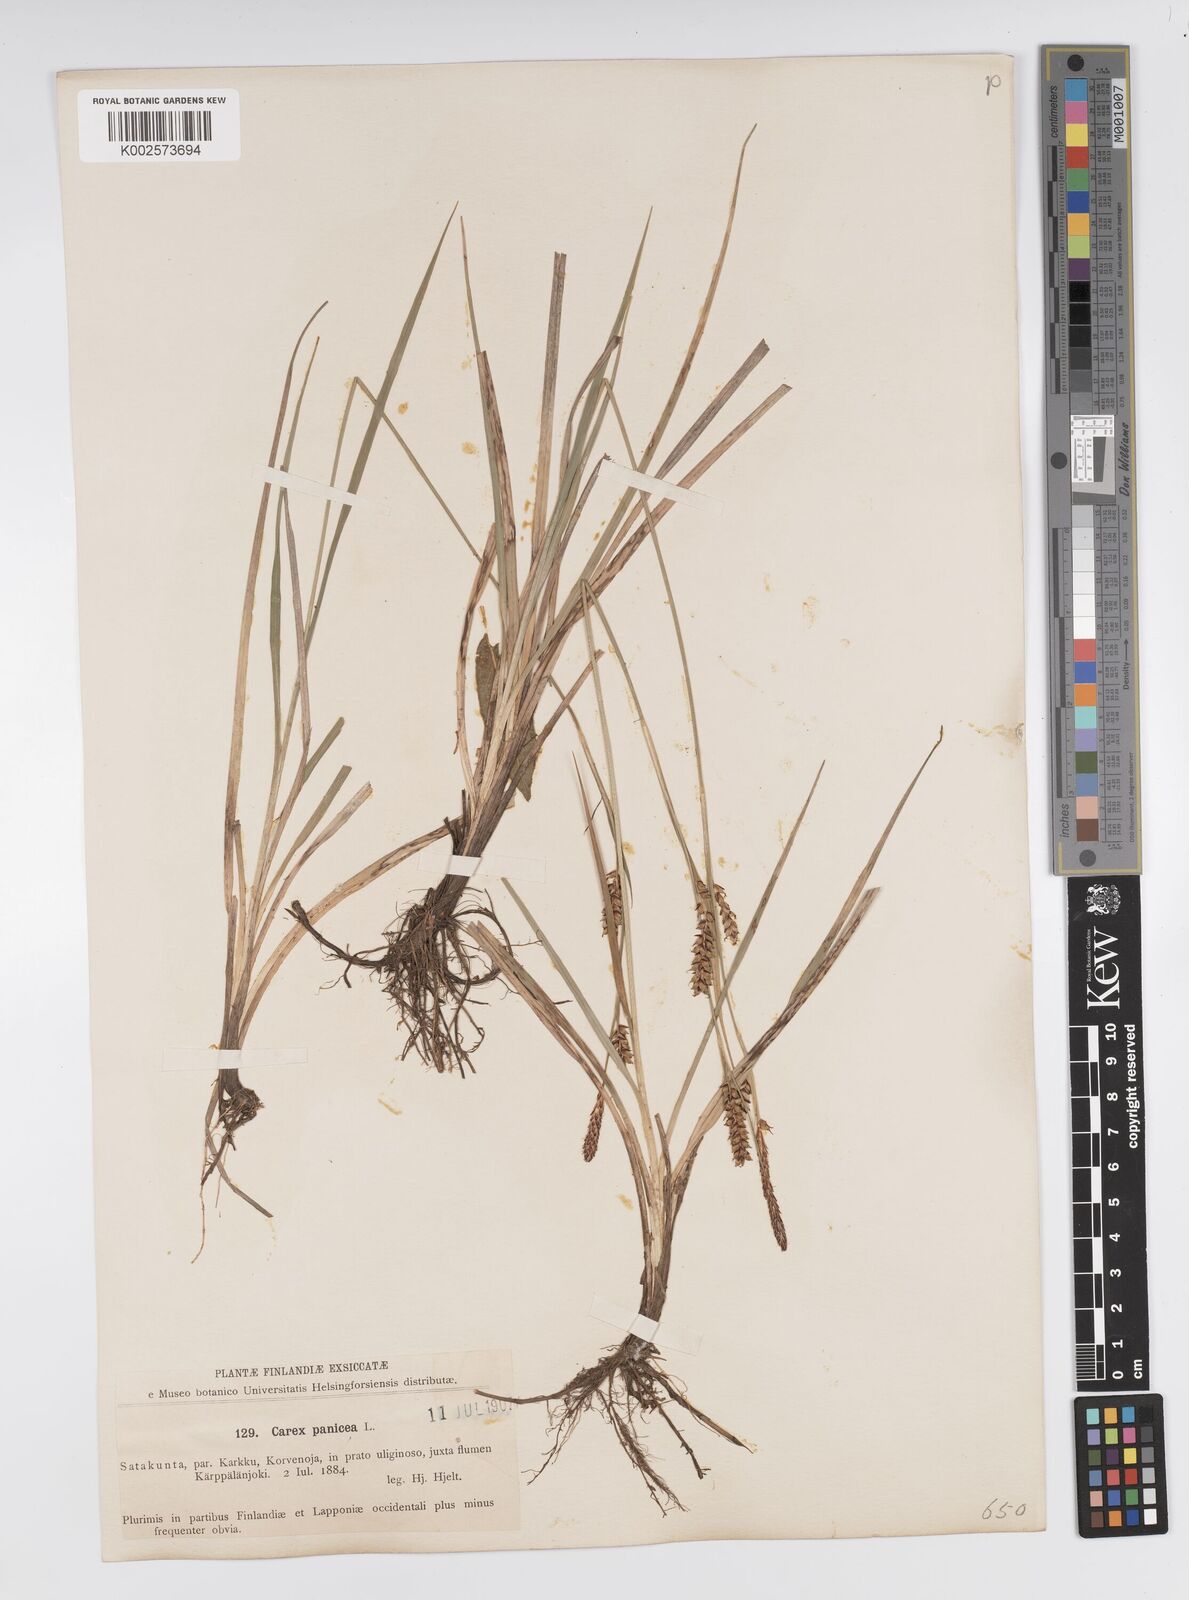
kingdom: Plantae
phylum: Tracheophyta
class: Liliopsida
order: Poales
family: Cyperaceae
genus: Carex
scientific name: Carex panicea
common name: Carnation sedge
